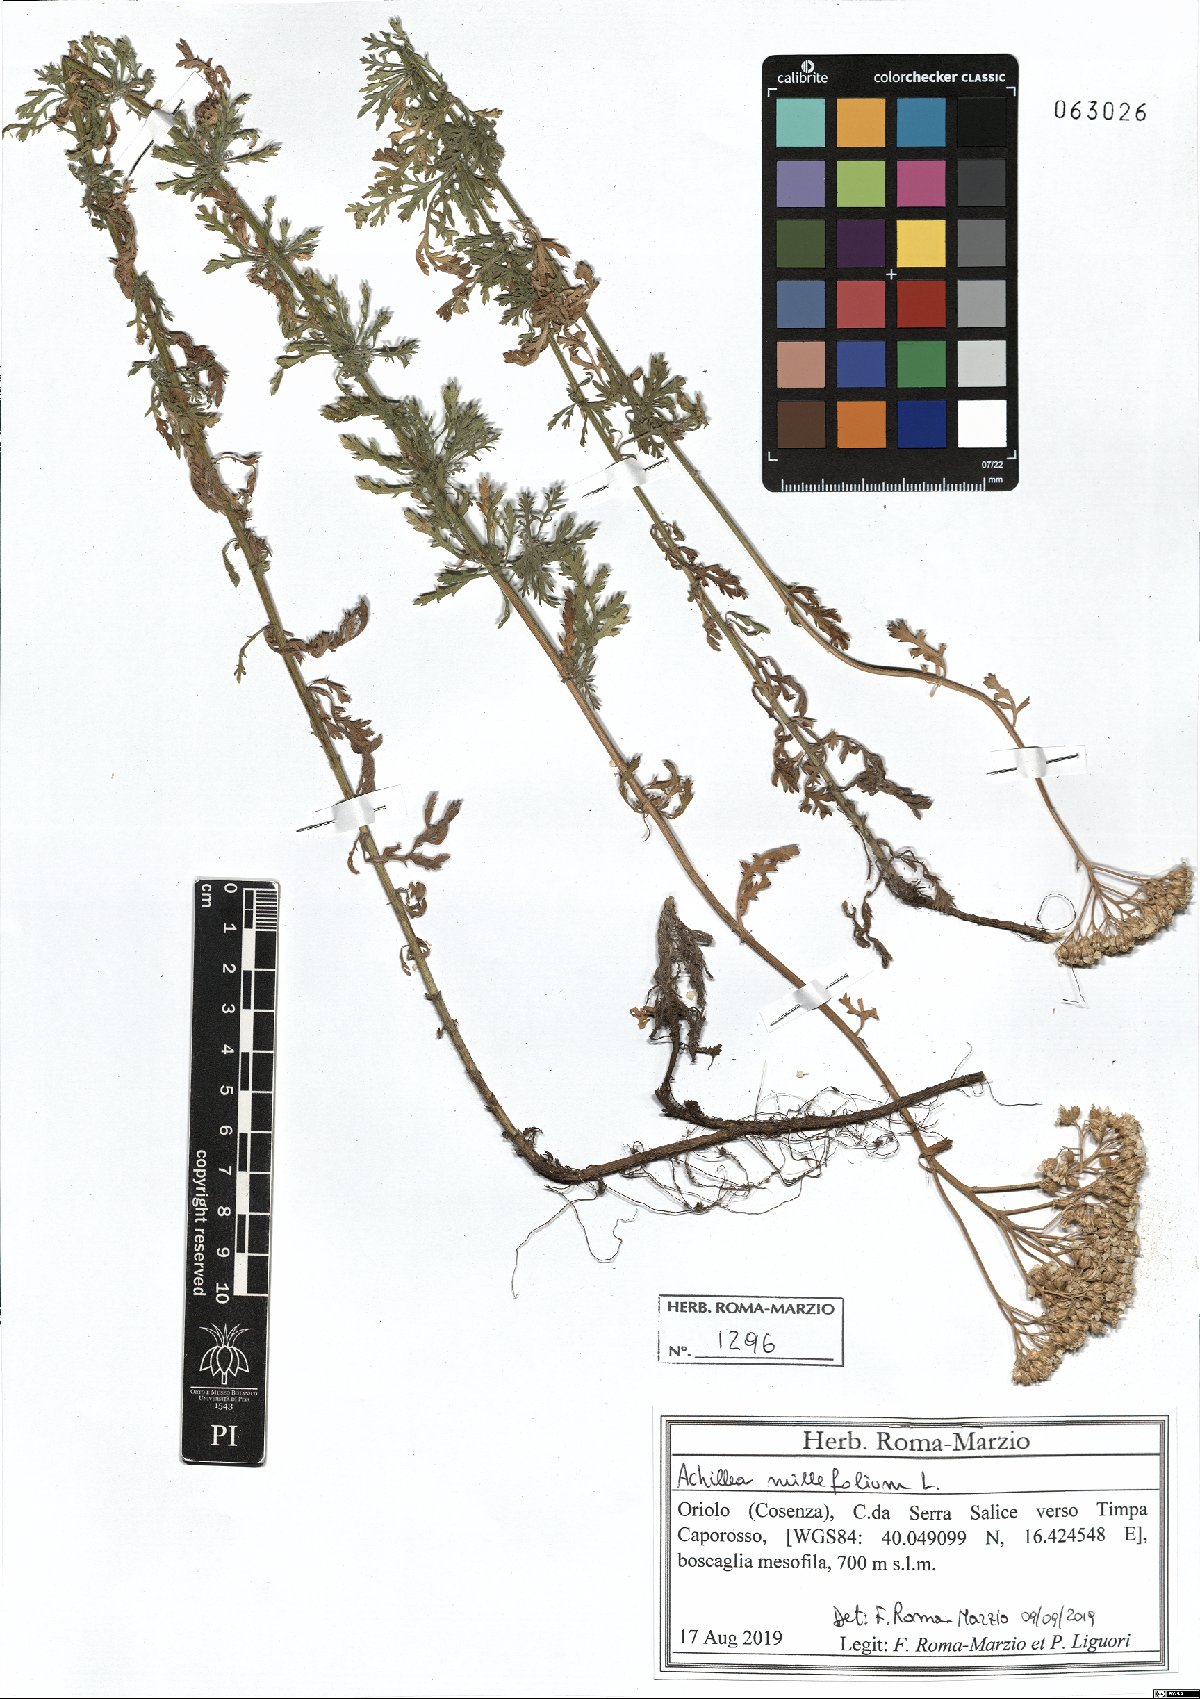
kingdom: Plantae
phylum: Tracheophyta
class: Magnoliopsida
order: Asterales
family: Asteraceae
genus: Achillea
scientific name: Achillea millefolium
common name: Yarrow
